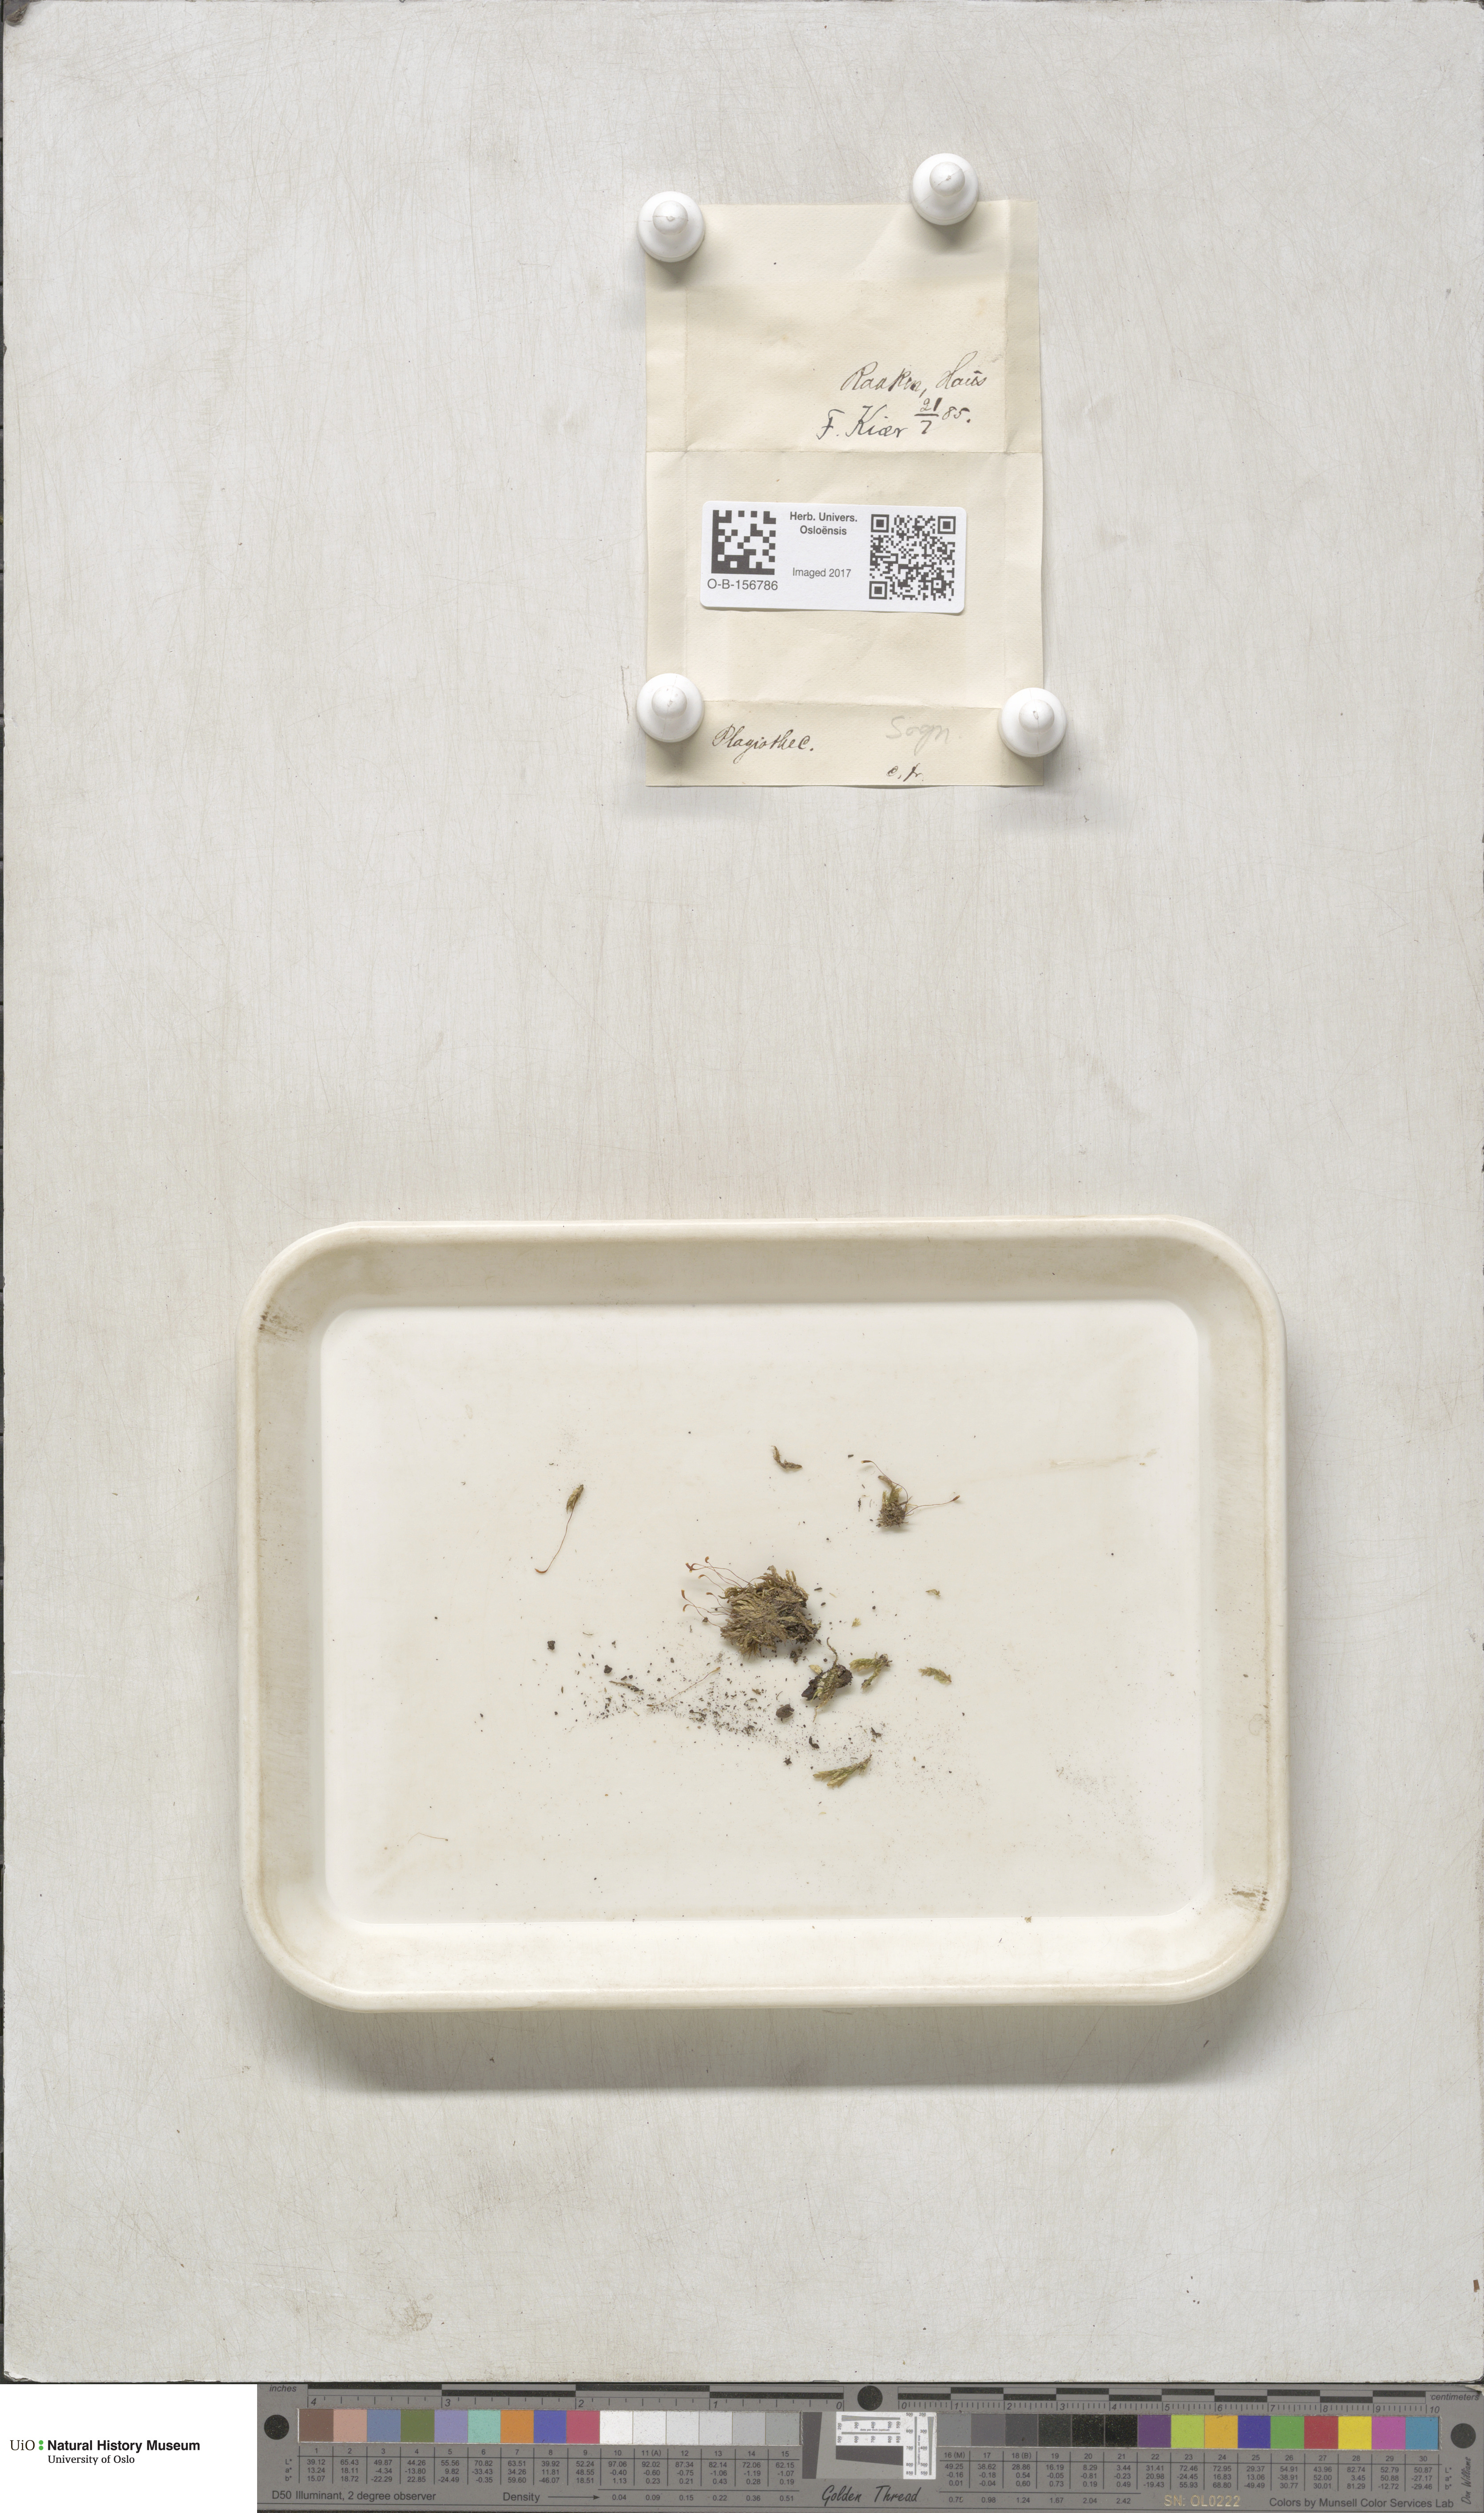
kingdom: Plantae
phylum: Bryophyta
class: Bryopsida
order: Hypnales
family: Plagiotheciaceae
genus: Plagiothecium
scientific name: Plagiothecium
